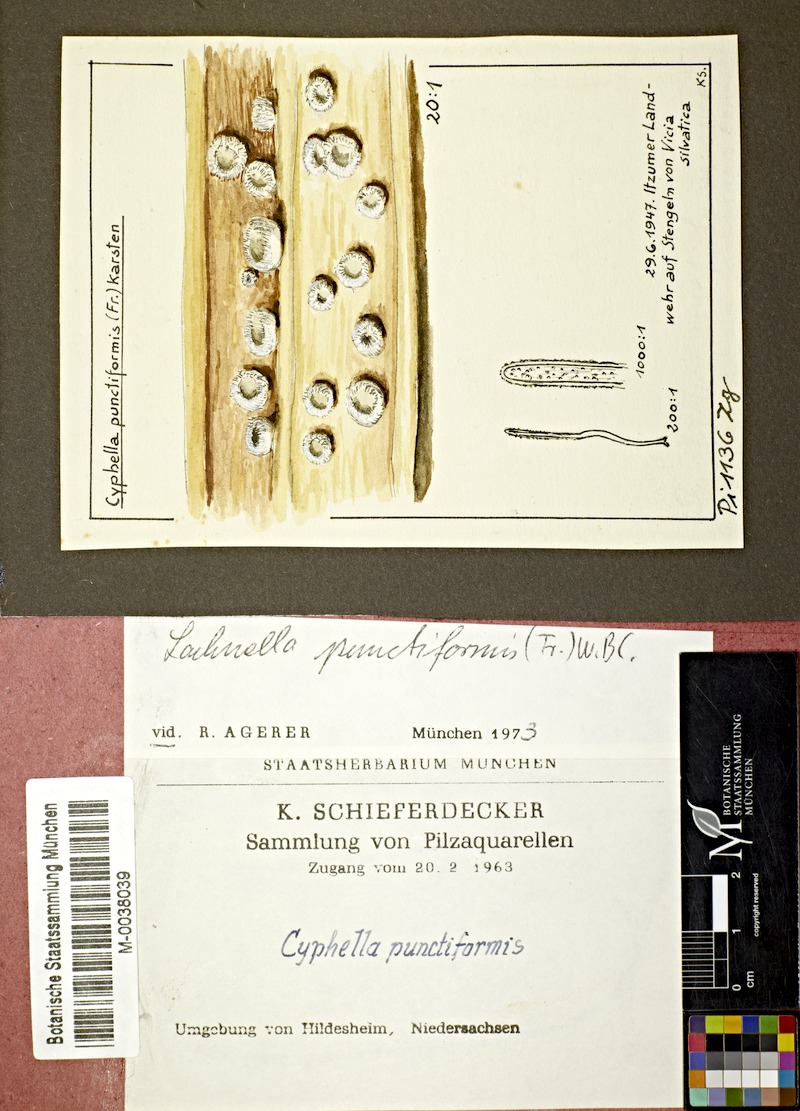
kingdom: Fungi
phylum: Basidiomycota
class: Agaricomycetes
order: Agaricales
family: Niaceae
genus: Flagelloscypha
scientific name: Flagelloscypha punctiformis
